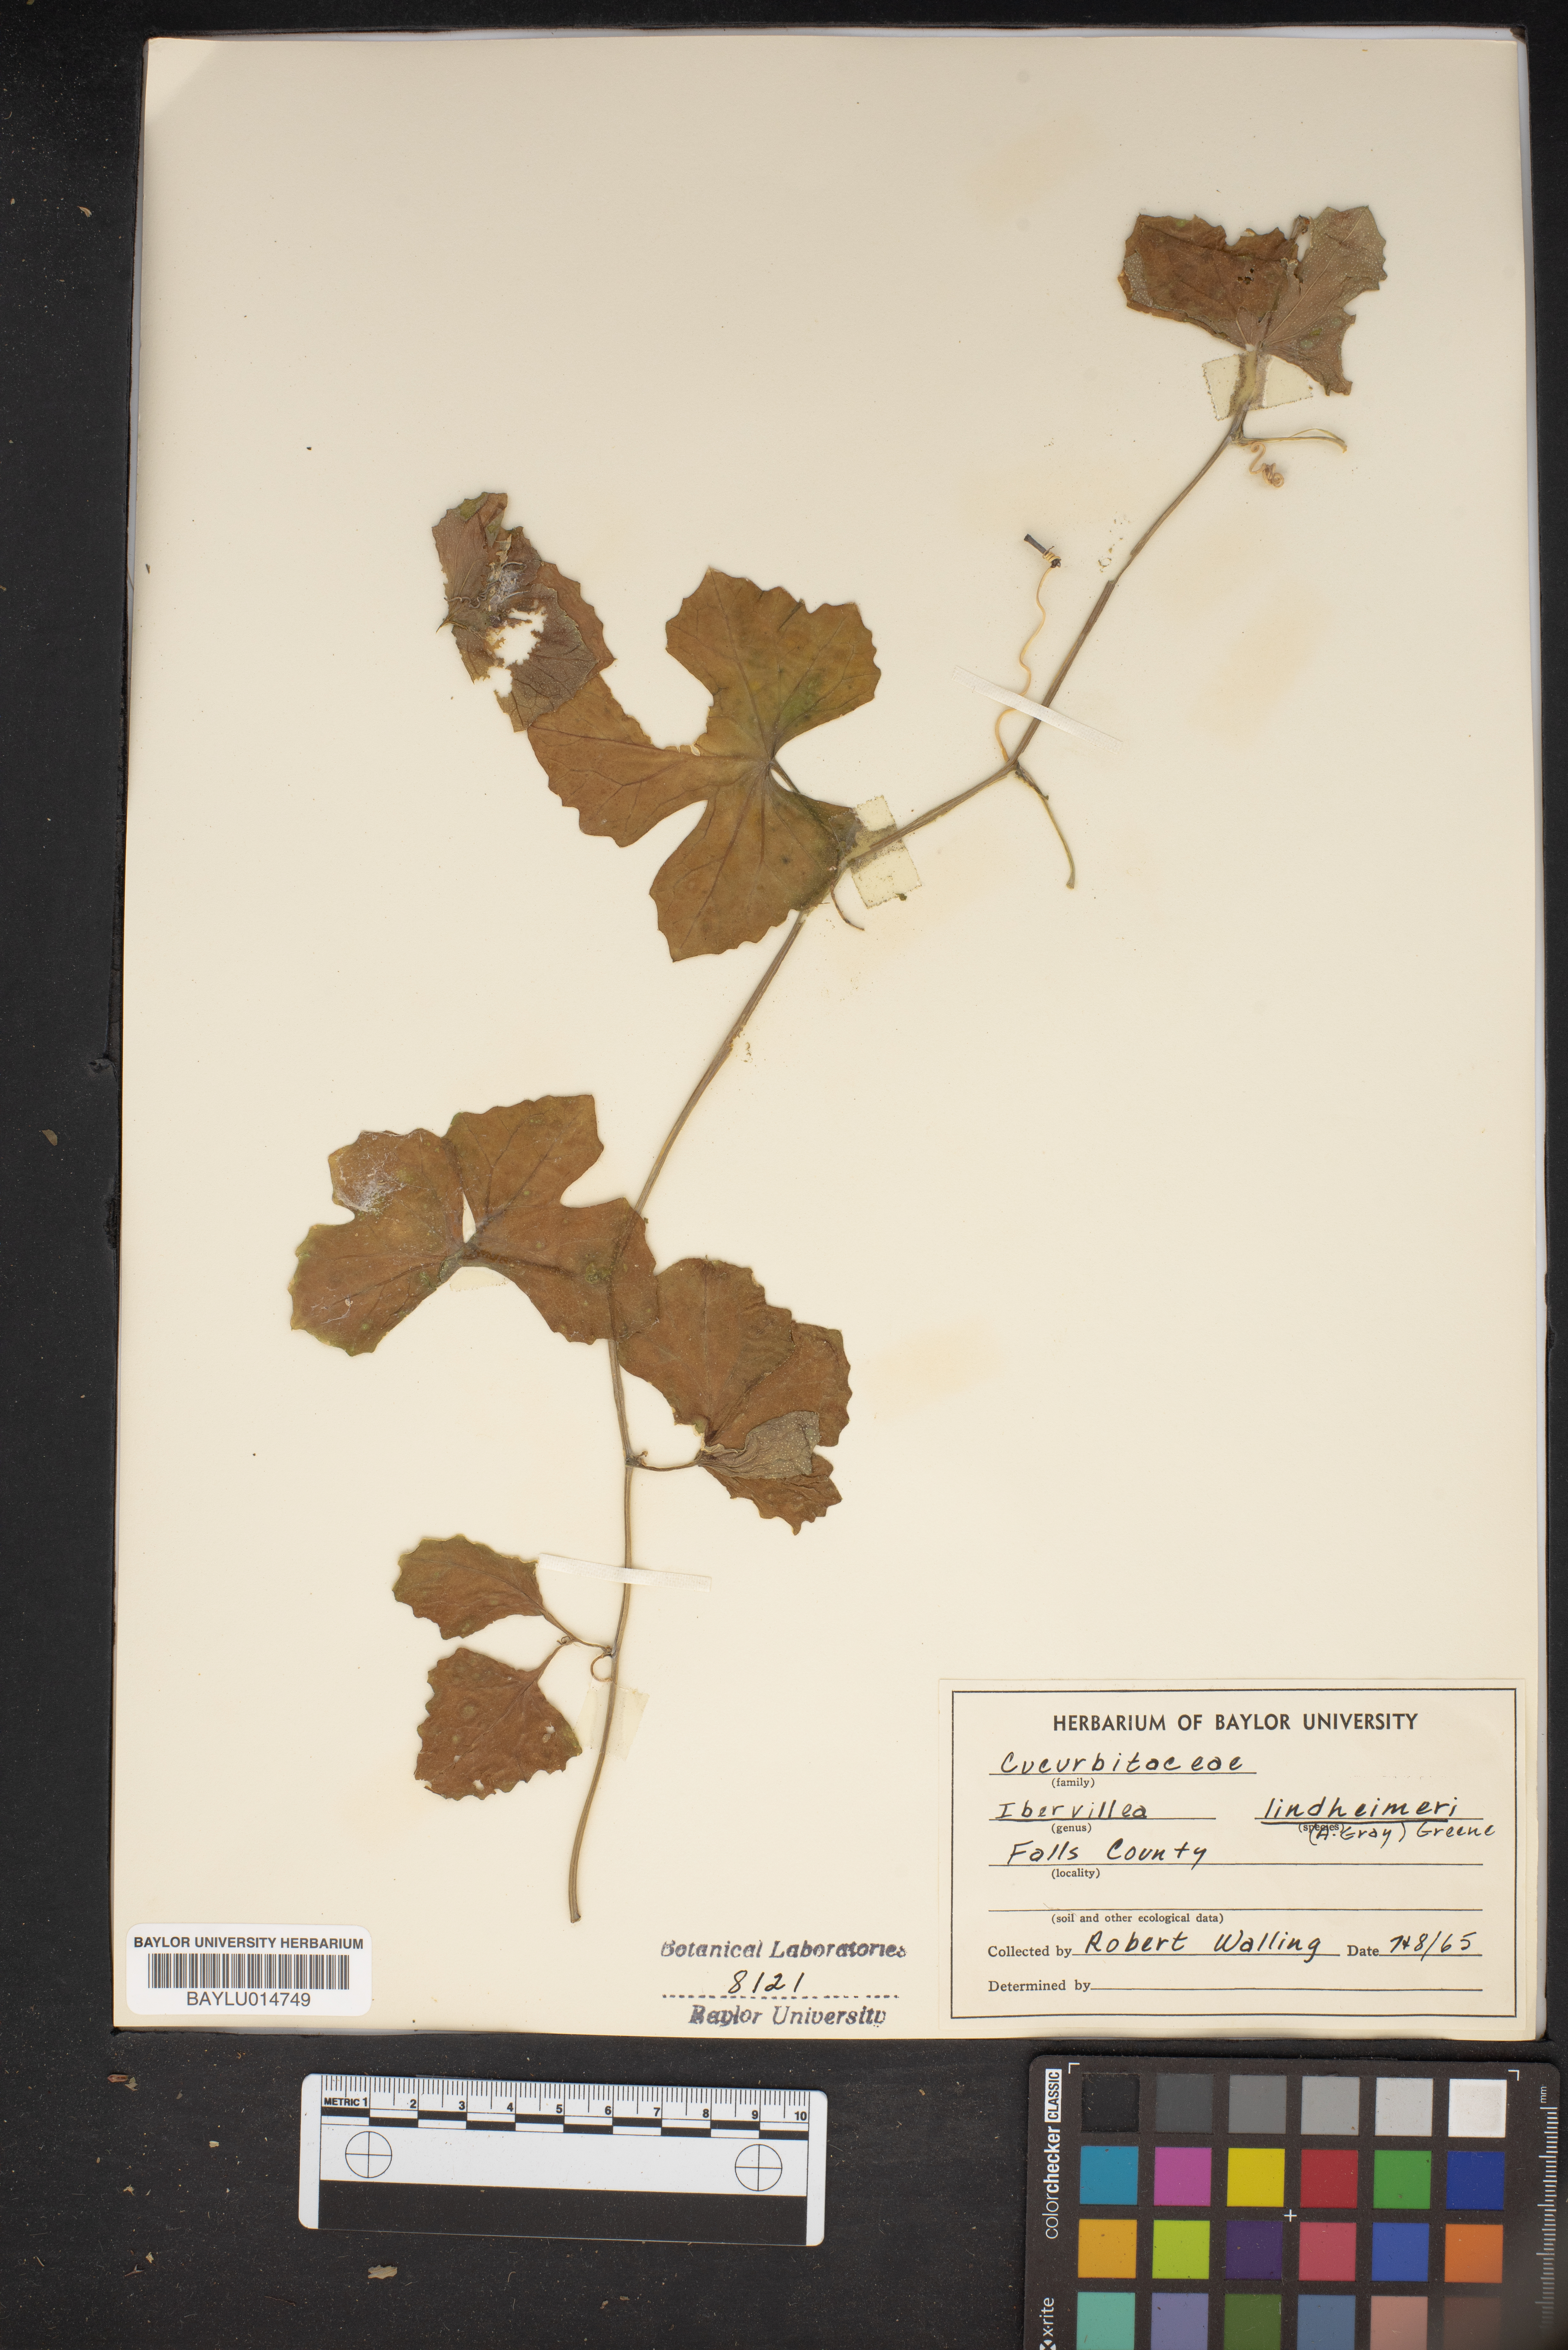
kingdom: Plantae
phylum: Tracheophyta
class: Magnoliopsida
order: Cucurbitales
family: Cucurbitaceae
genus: Ibervillea
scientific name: Ibervillea lindheimeri
